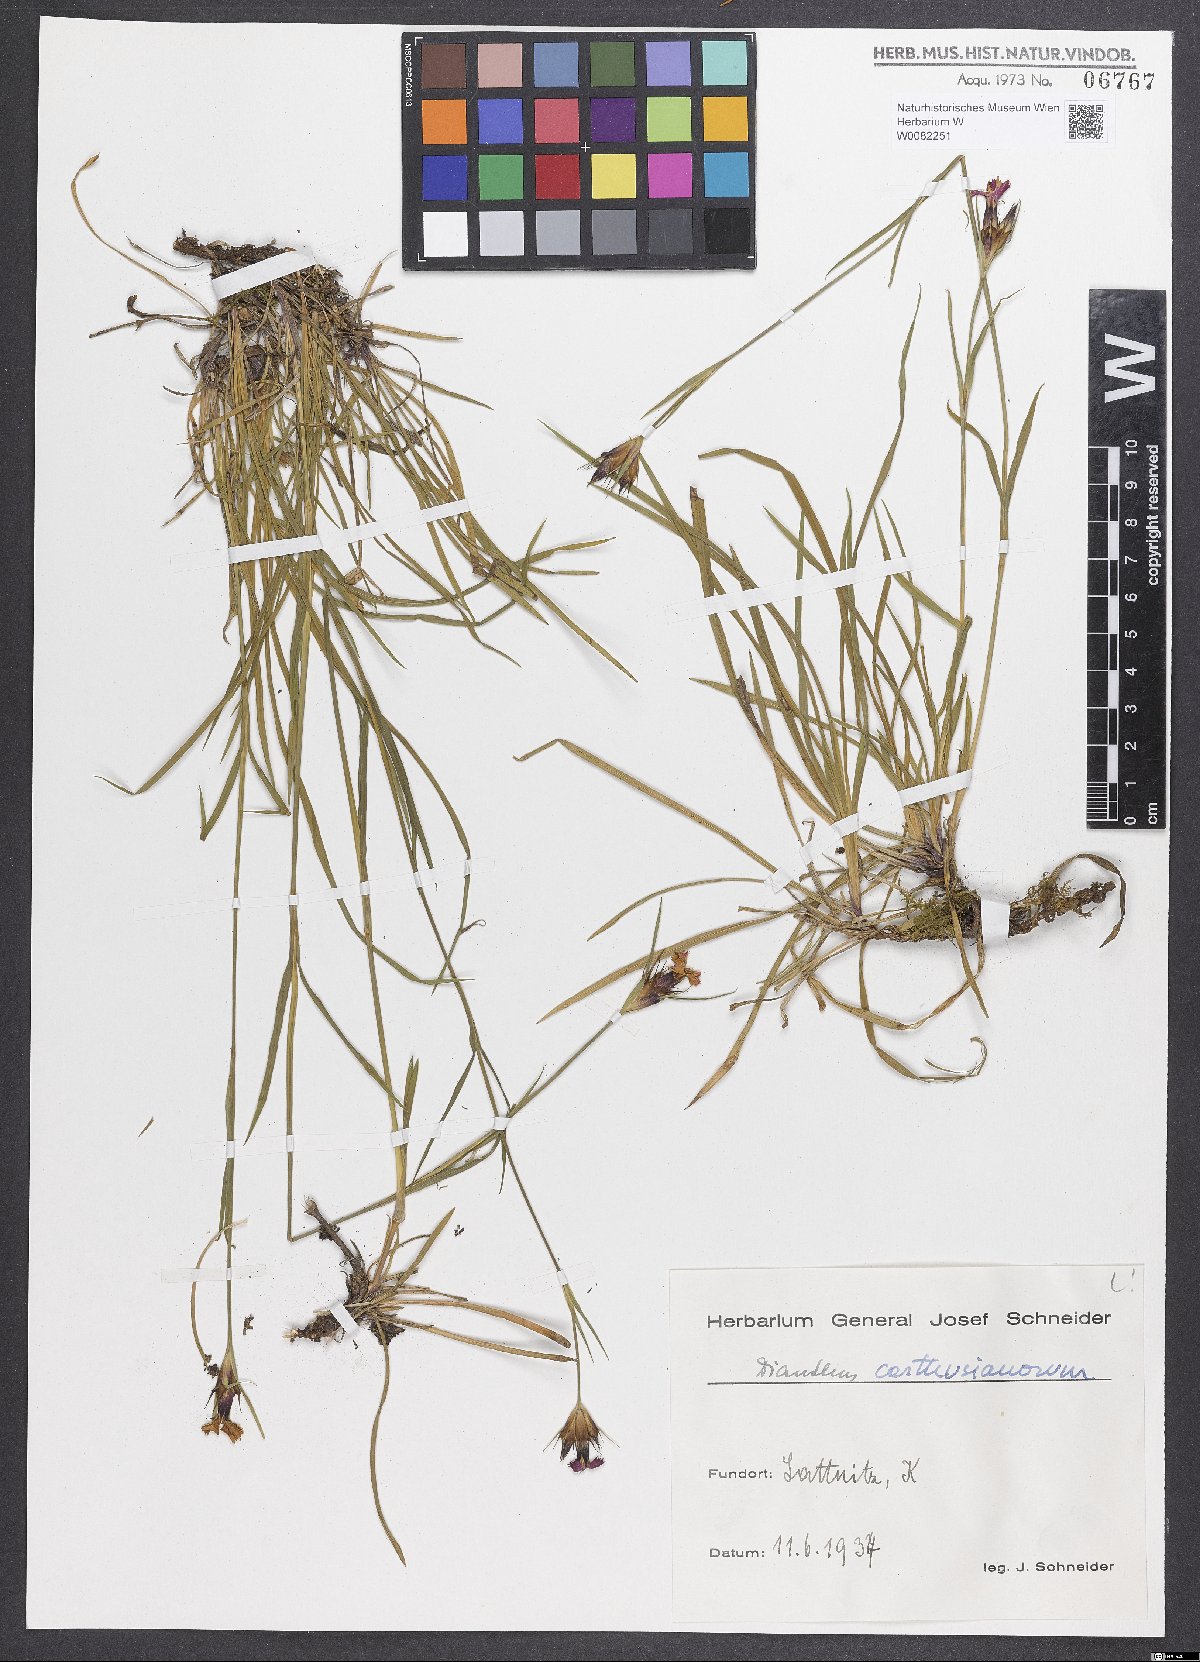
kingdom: Plantae
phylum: Tracheophyta
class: Magnoliopsida
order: Caryophyllales
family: Caryophyllaceae
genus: Dianthus
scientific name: Dianthus carthusianorum
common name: Carthusian pink
